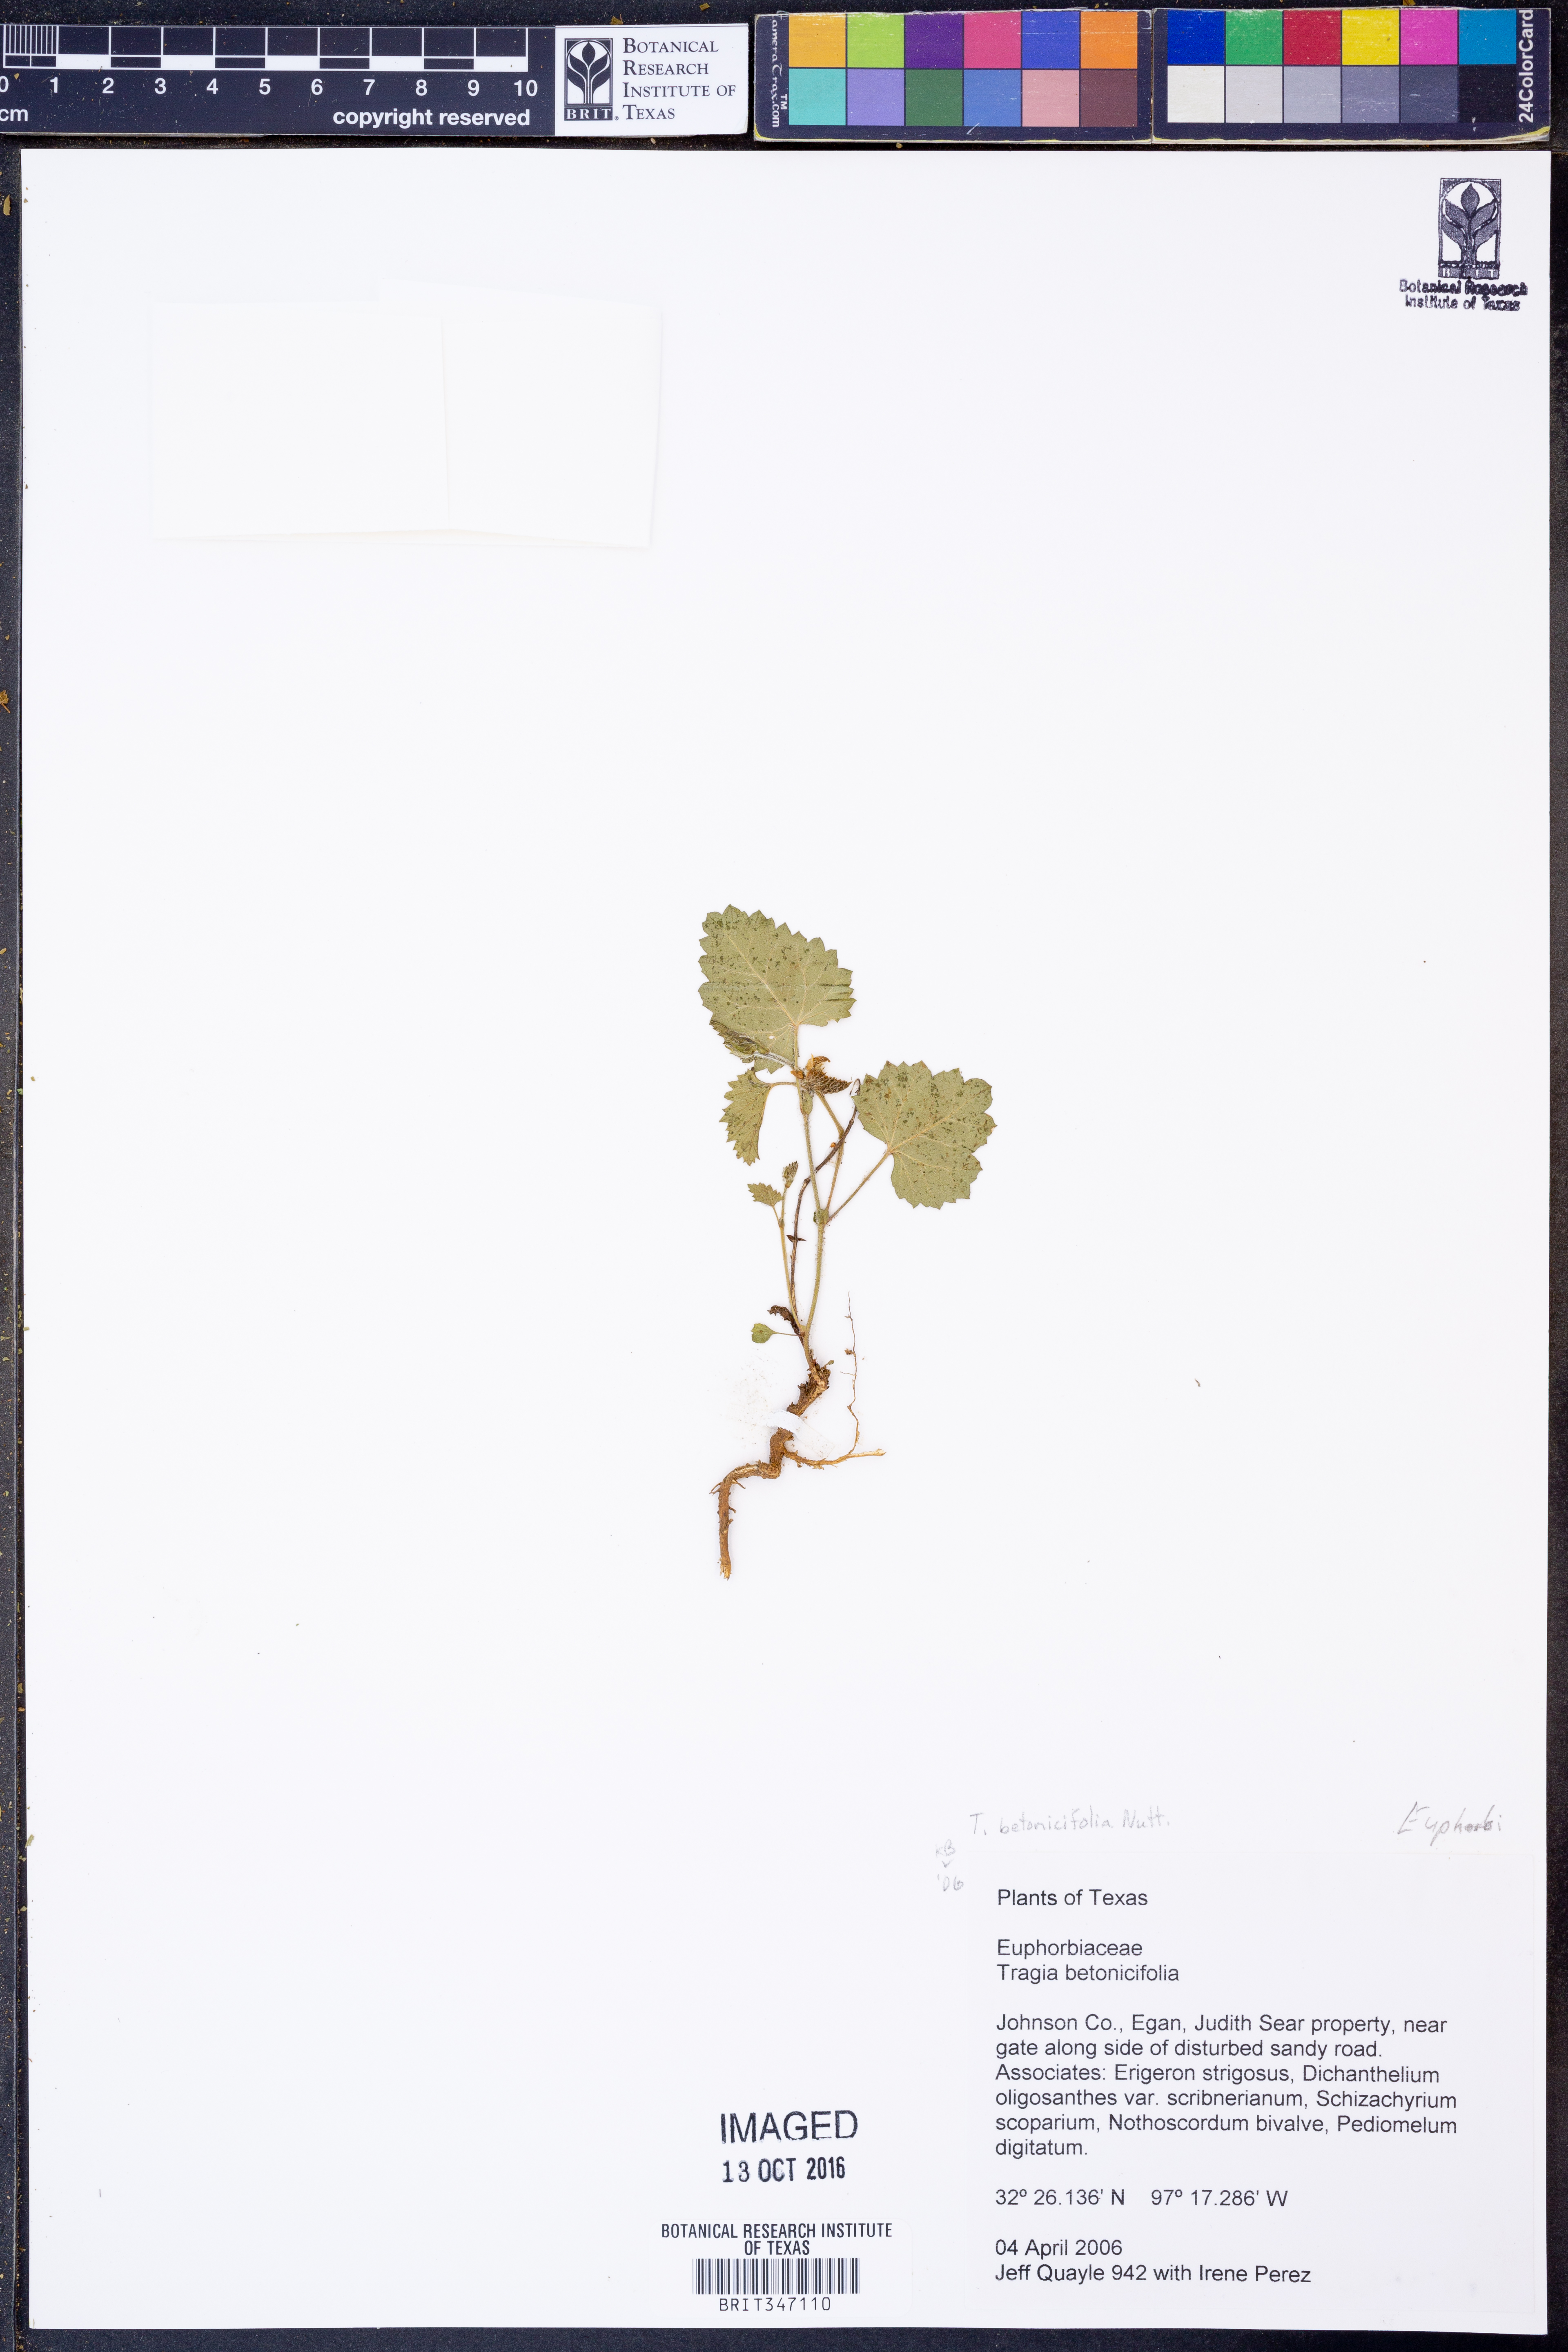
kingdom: Plantae
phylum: Tracheophyta
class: Magnoliopsida
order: Malpighiales
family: Euphorbiaceae
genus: Tragia
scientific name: Tragia betonicifolia
